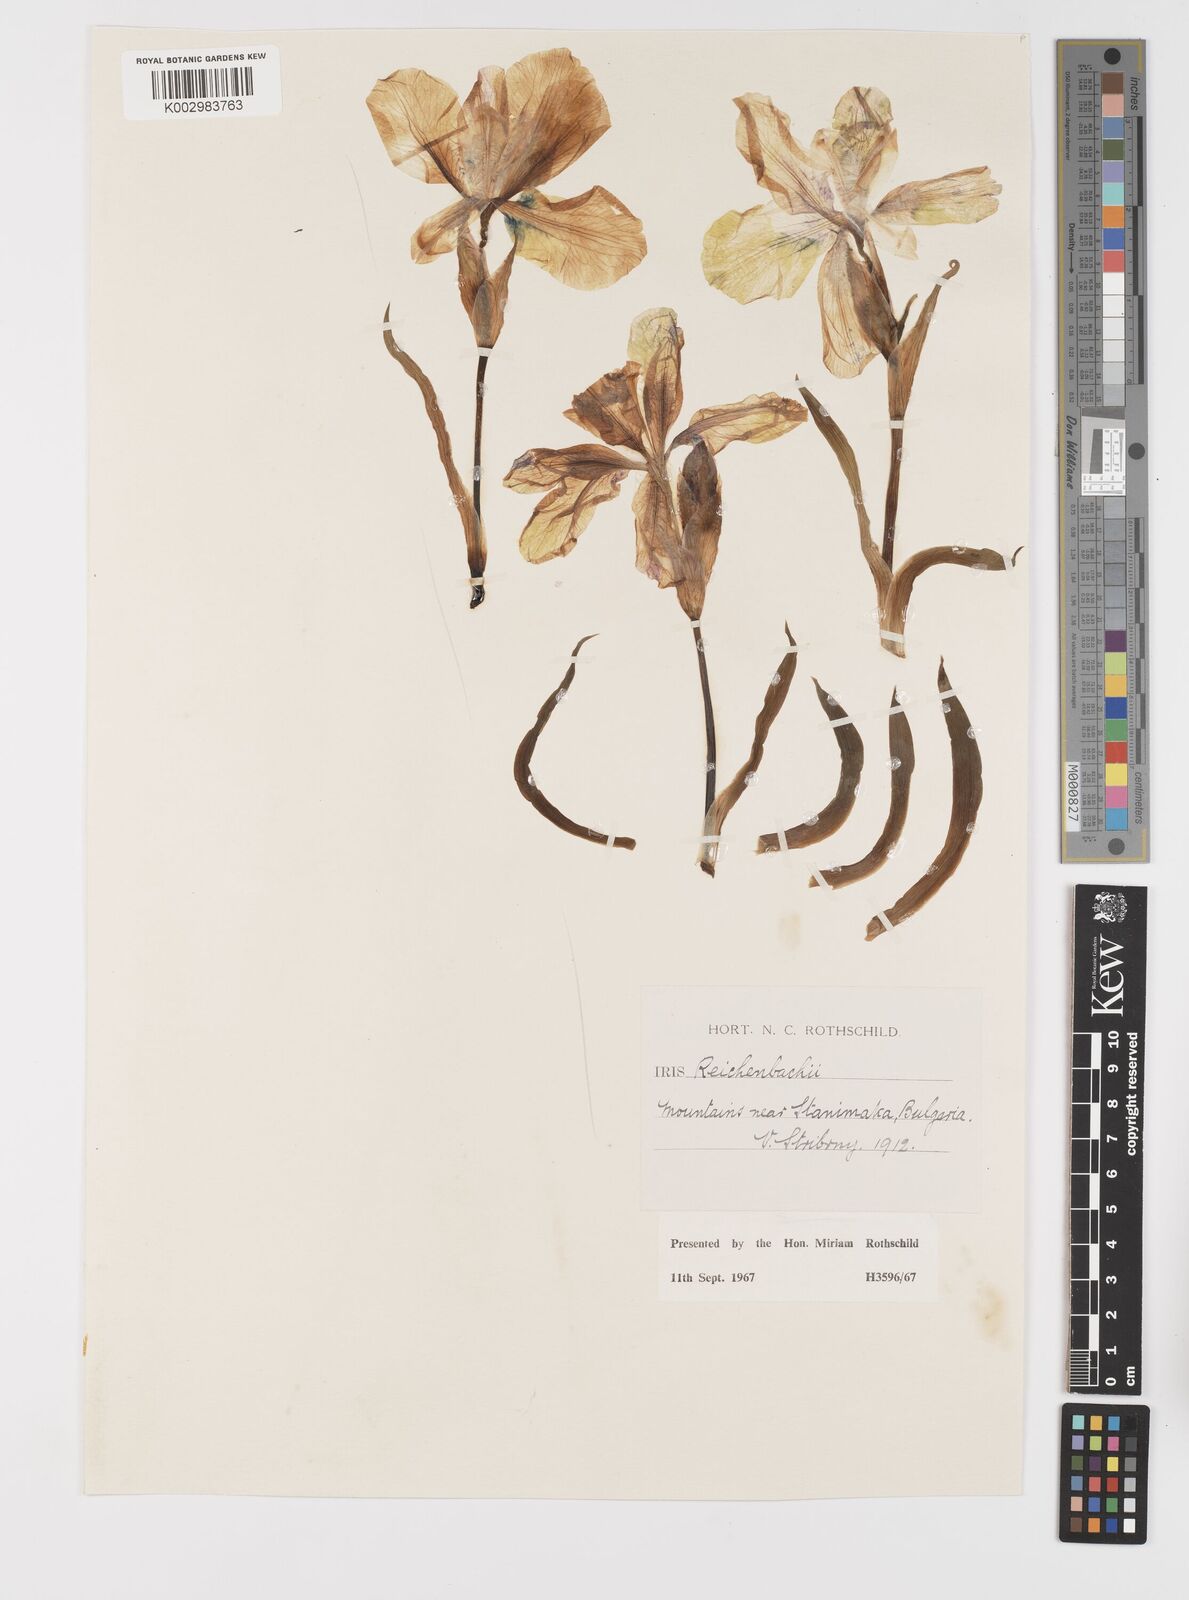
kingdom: Plantae
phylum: Tracheophyta
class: Liliopsida
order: Asparagales
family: Iridaceae
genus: Iris
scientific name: Iris reichenbachii
